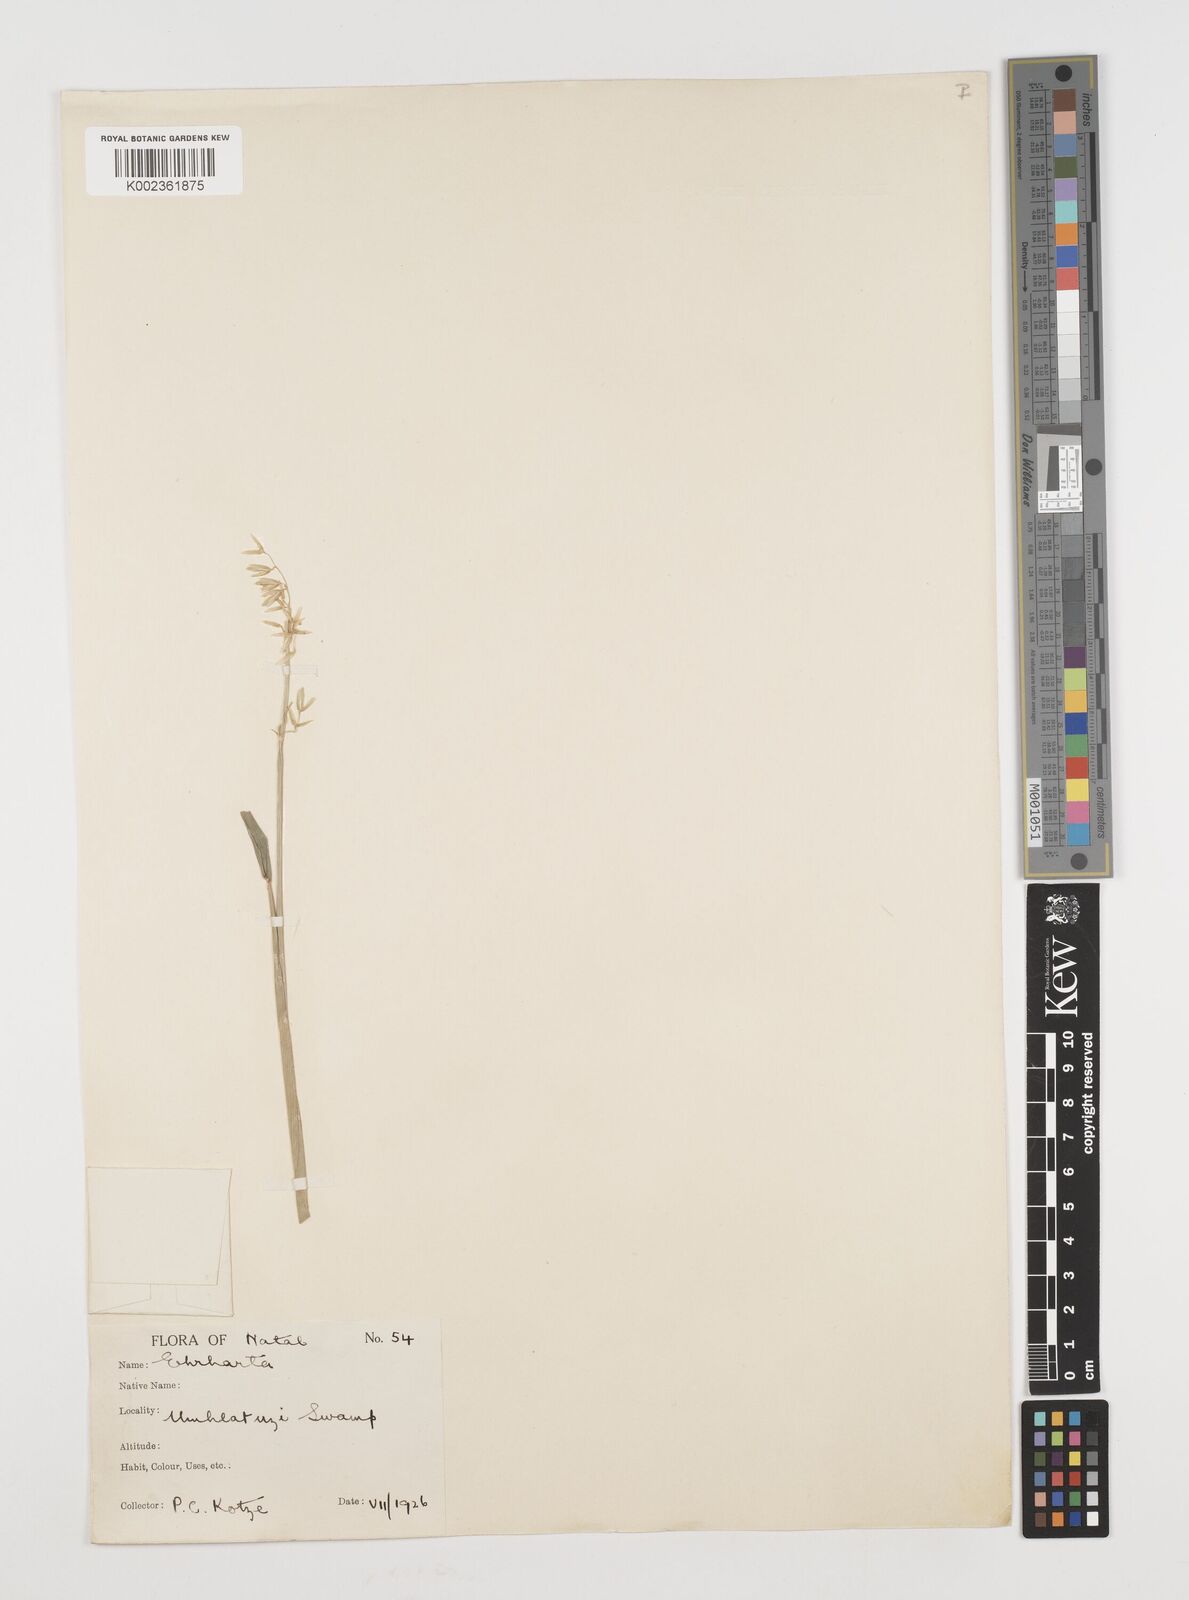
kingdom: Plantae
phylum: Tracheophyta
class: Liliopsida
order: Poales
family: Poaceae
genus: Ehrharta
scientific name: Ehrharta
